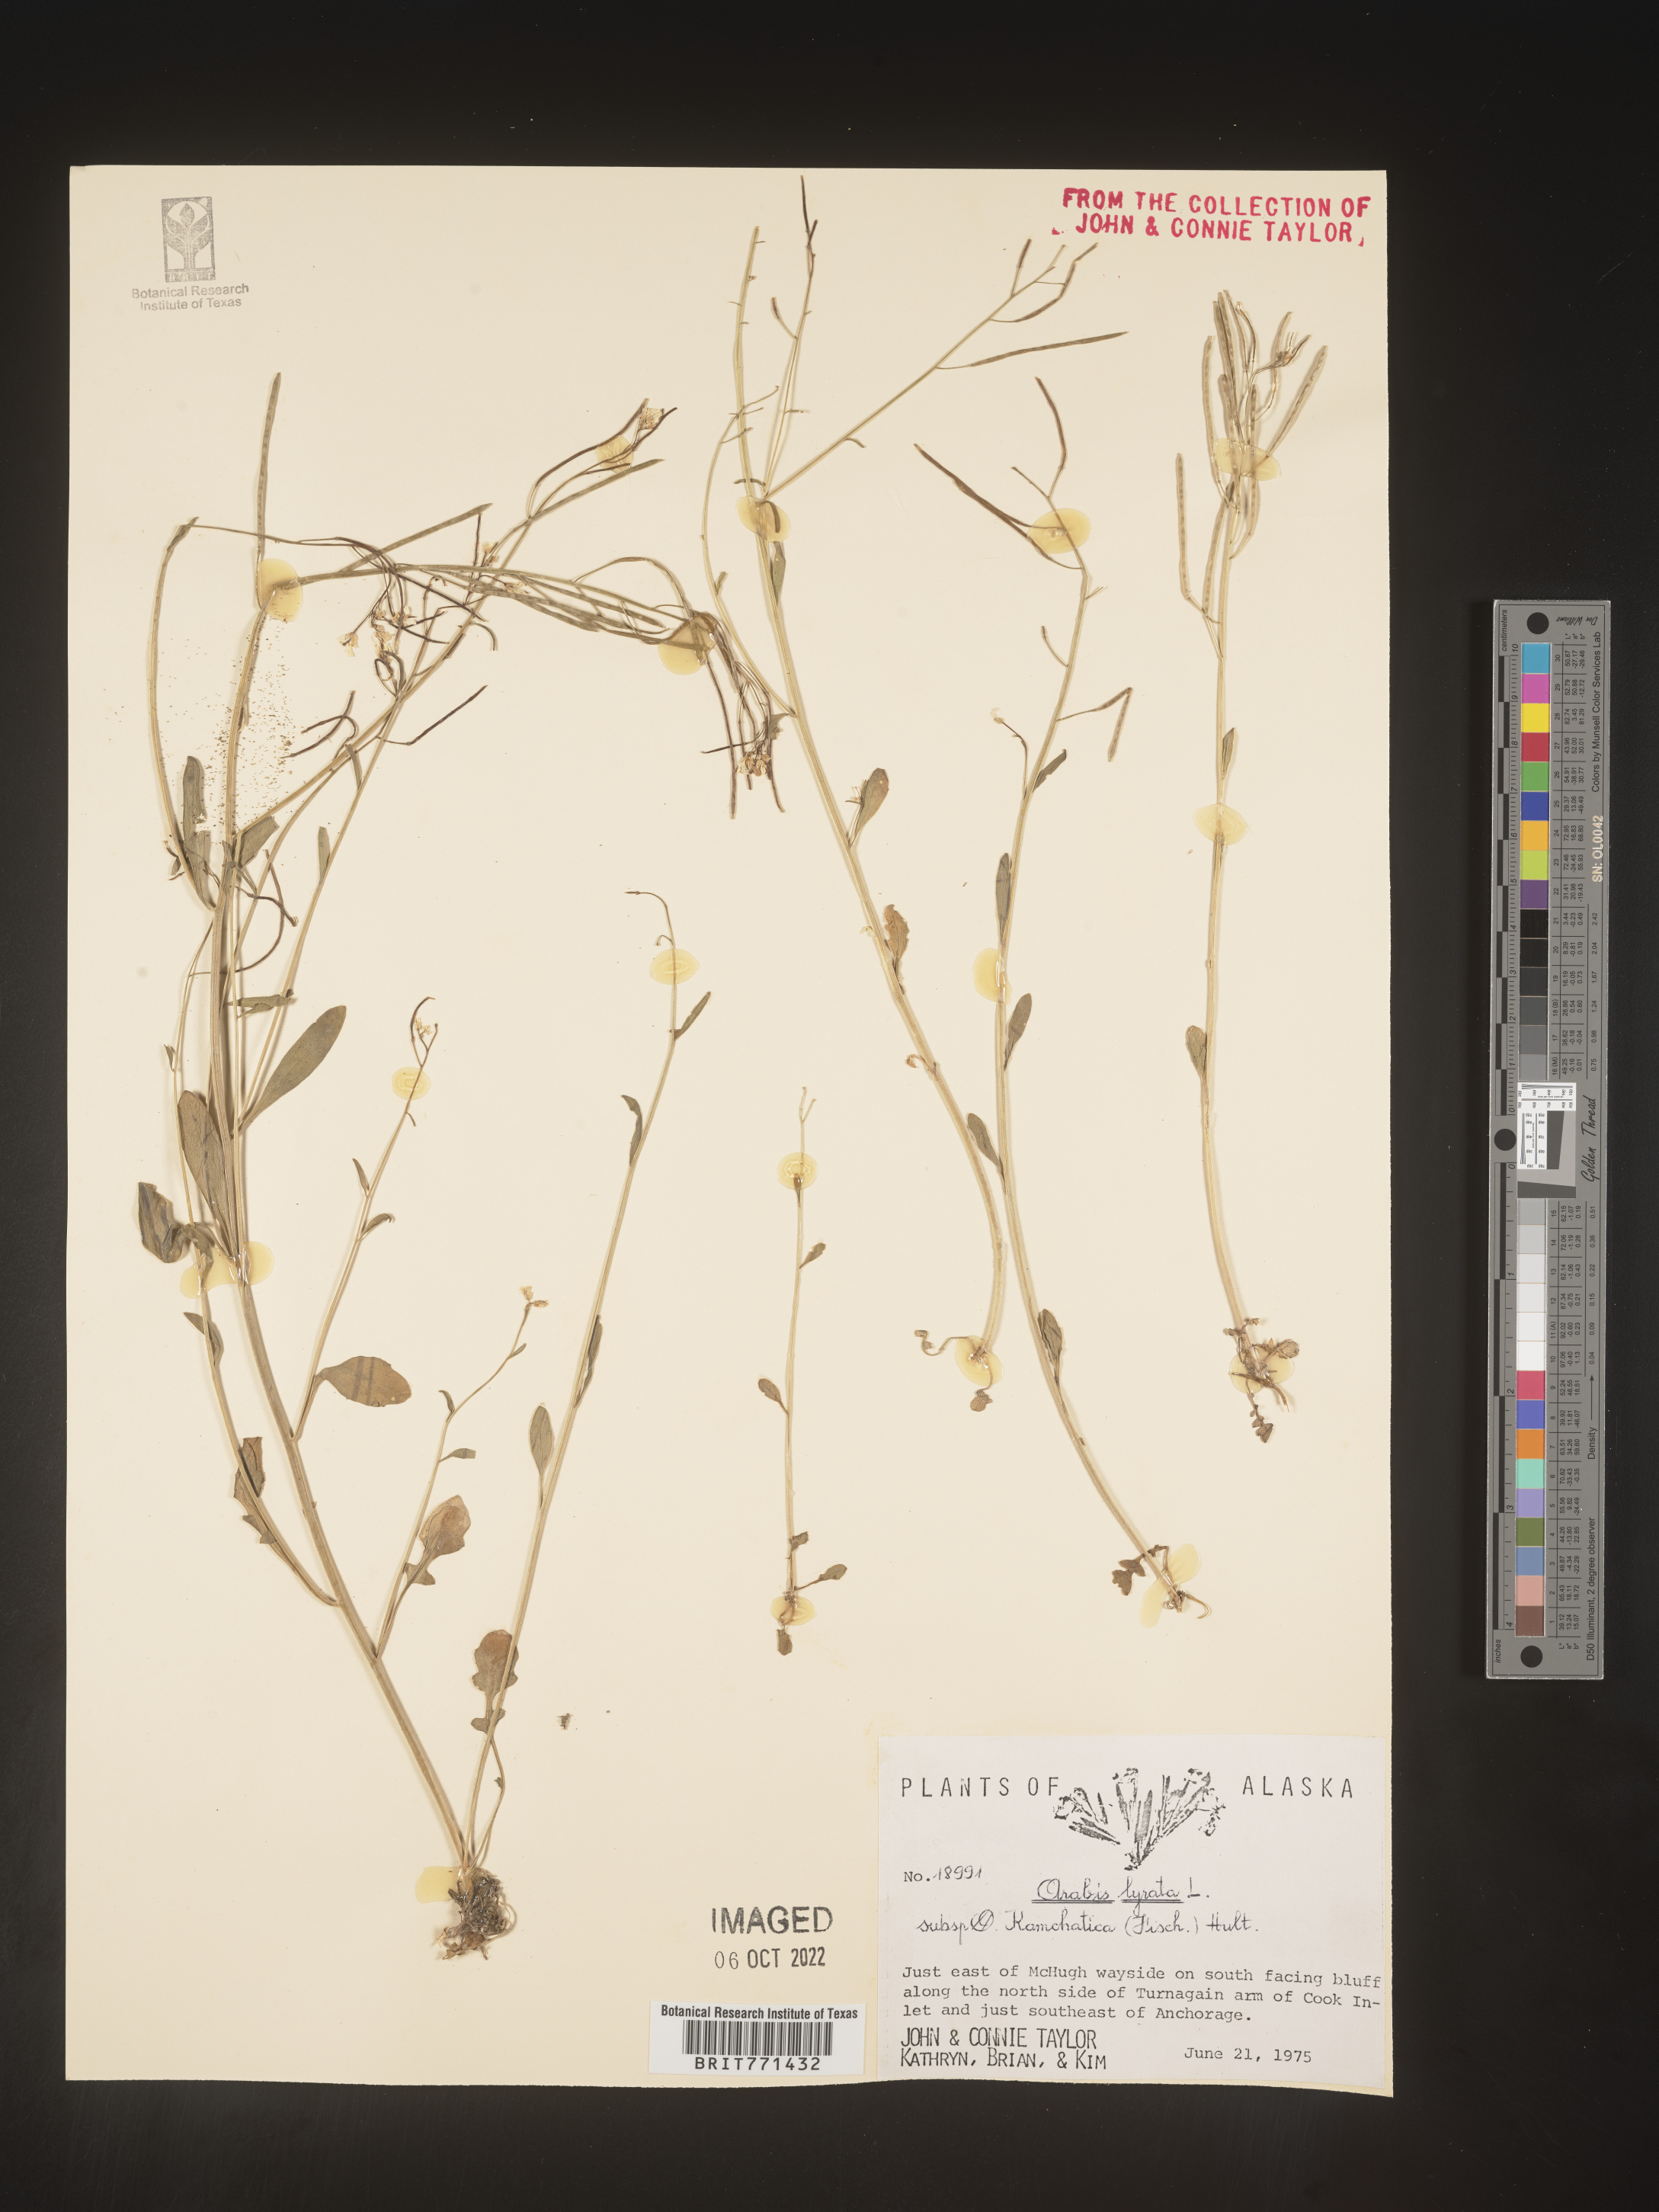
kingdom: Plantae
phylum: Tracheophyta
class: Magnoliopsida
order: Brassicales
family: Brassicaceae
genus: Arabidopsis
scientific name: Arabidopsis lyrata
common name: Lyrate rockcress
